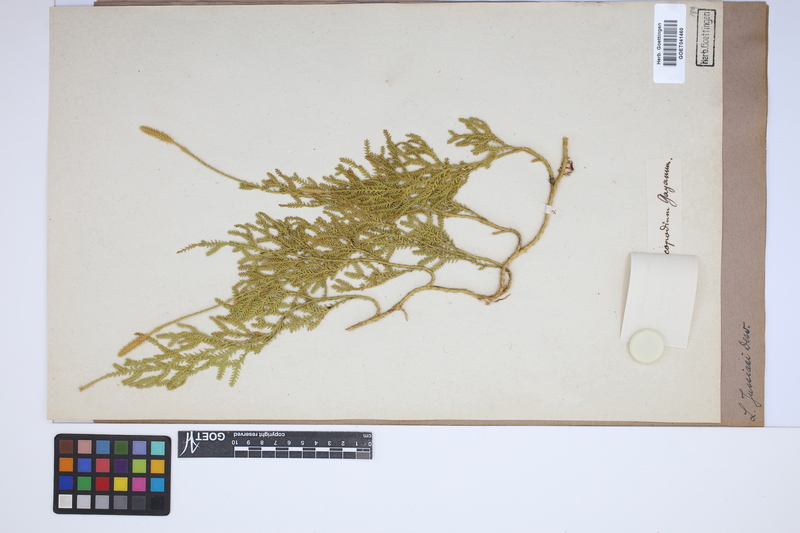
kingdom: Plantae
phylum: Tracheophyta
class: Lycopodiopsida
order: Lycopodiales
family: Lycopodiaceae
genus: Diphasium
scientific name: Diphasium jussiaei
